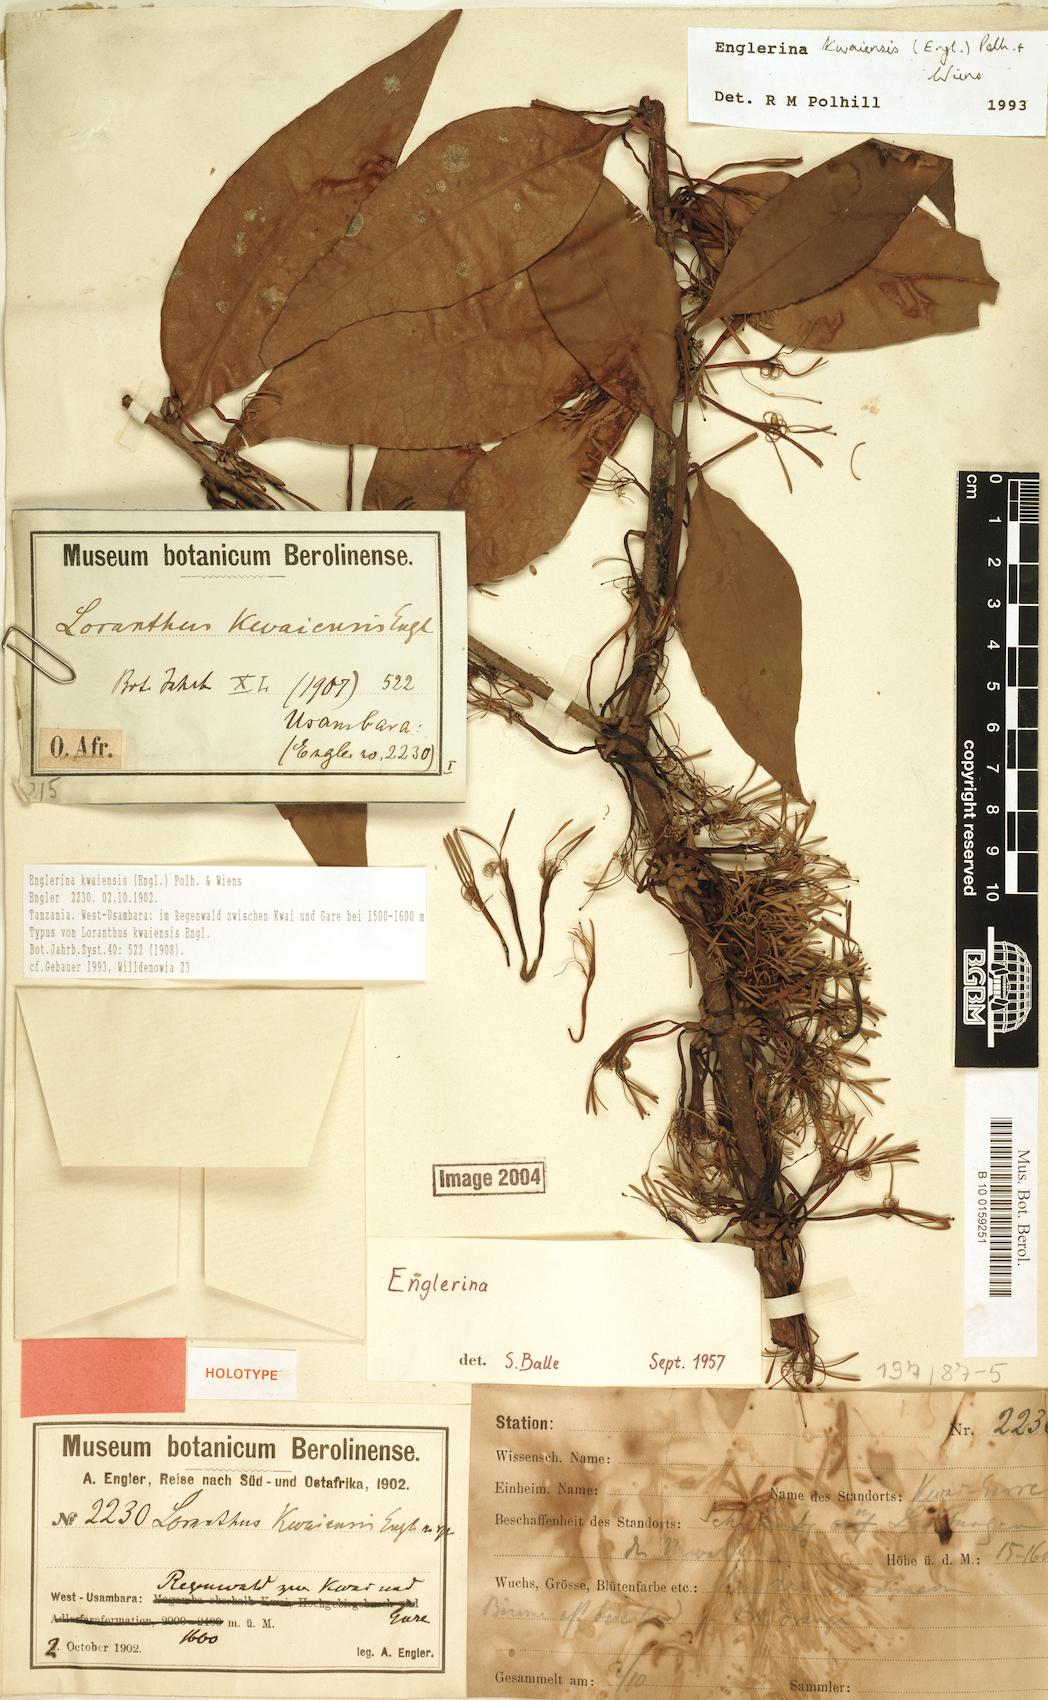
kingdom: Plantae
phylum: Tracheophyta
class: Magnoliopsida
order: Santalales
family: Loranthaceae
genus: Englerina
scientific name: Englerina kwaiensis
